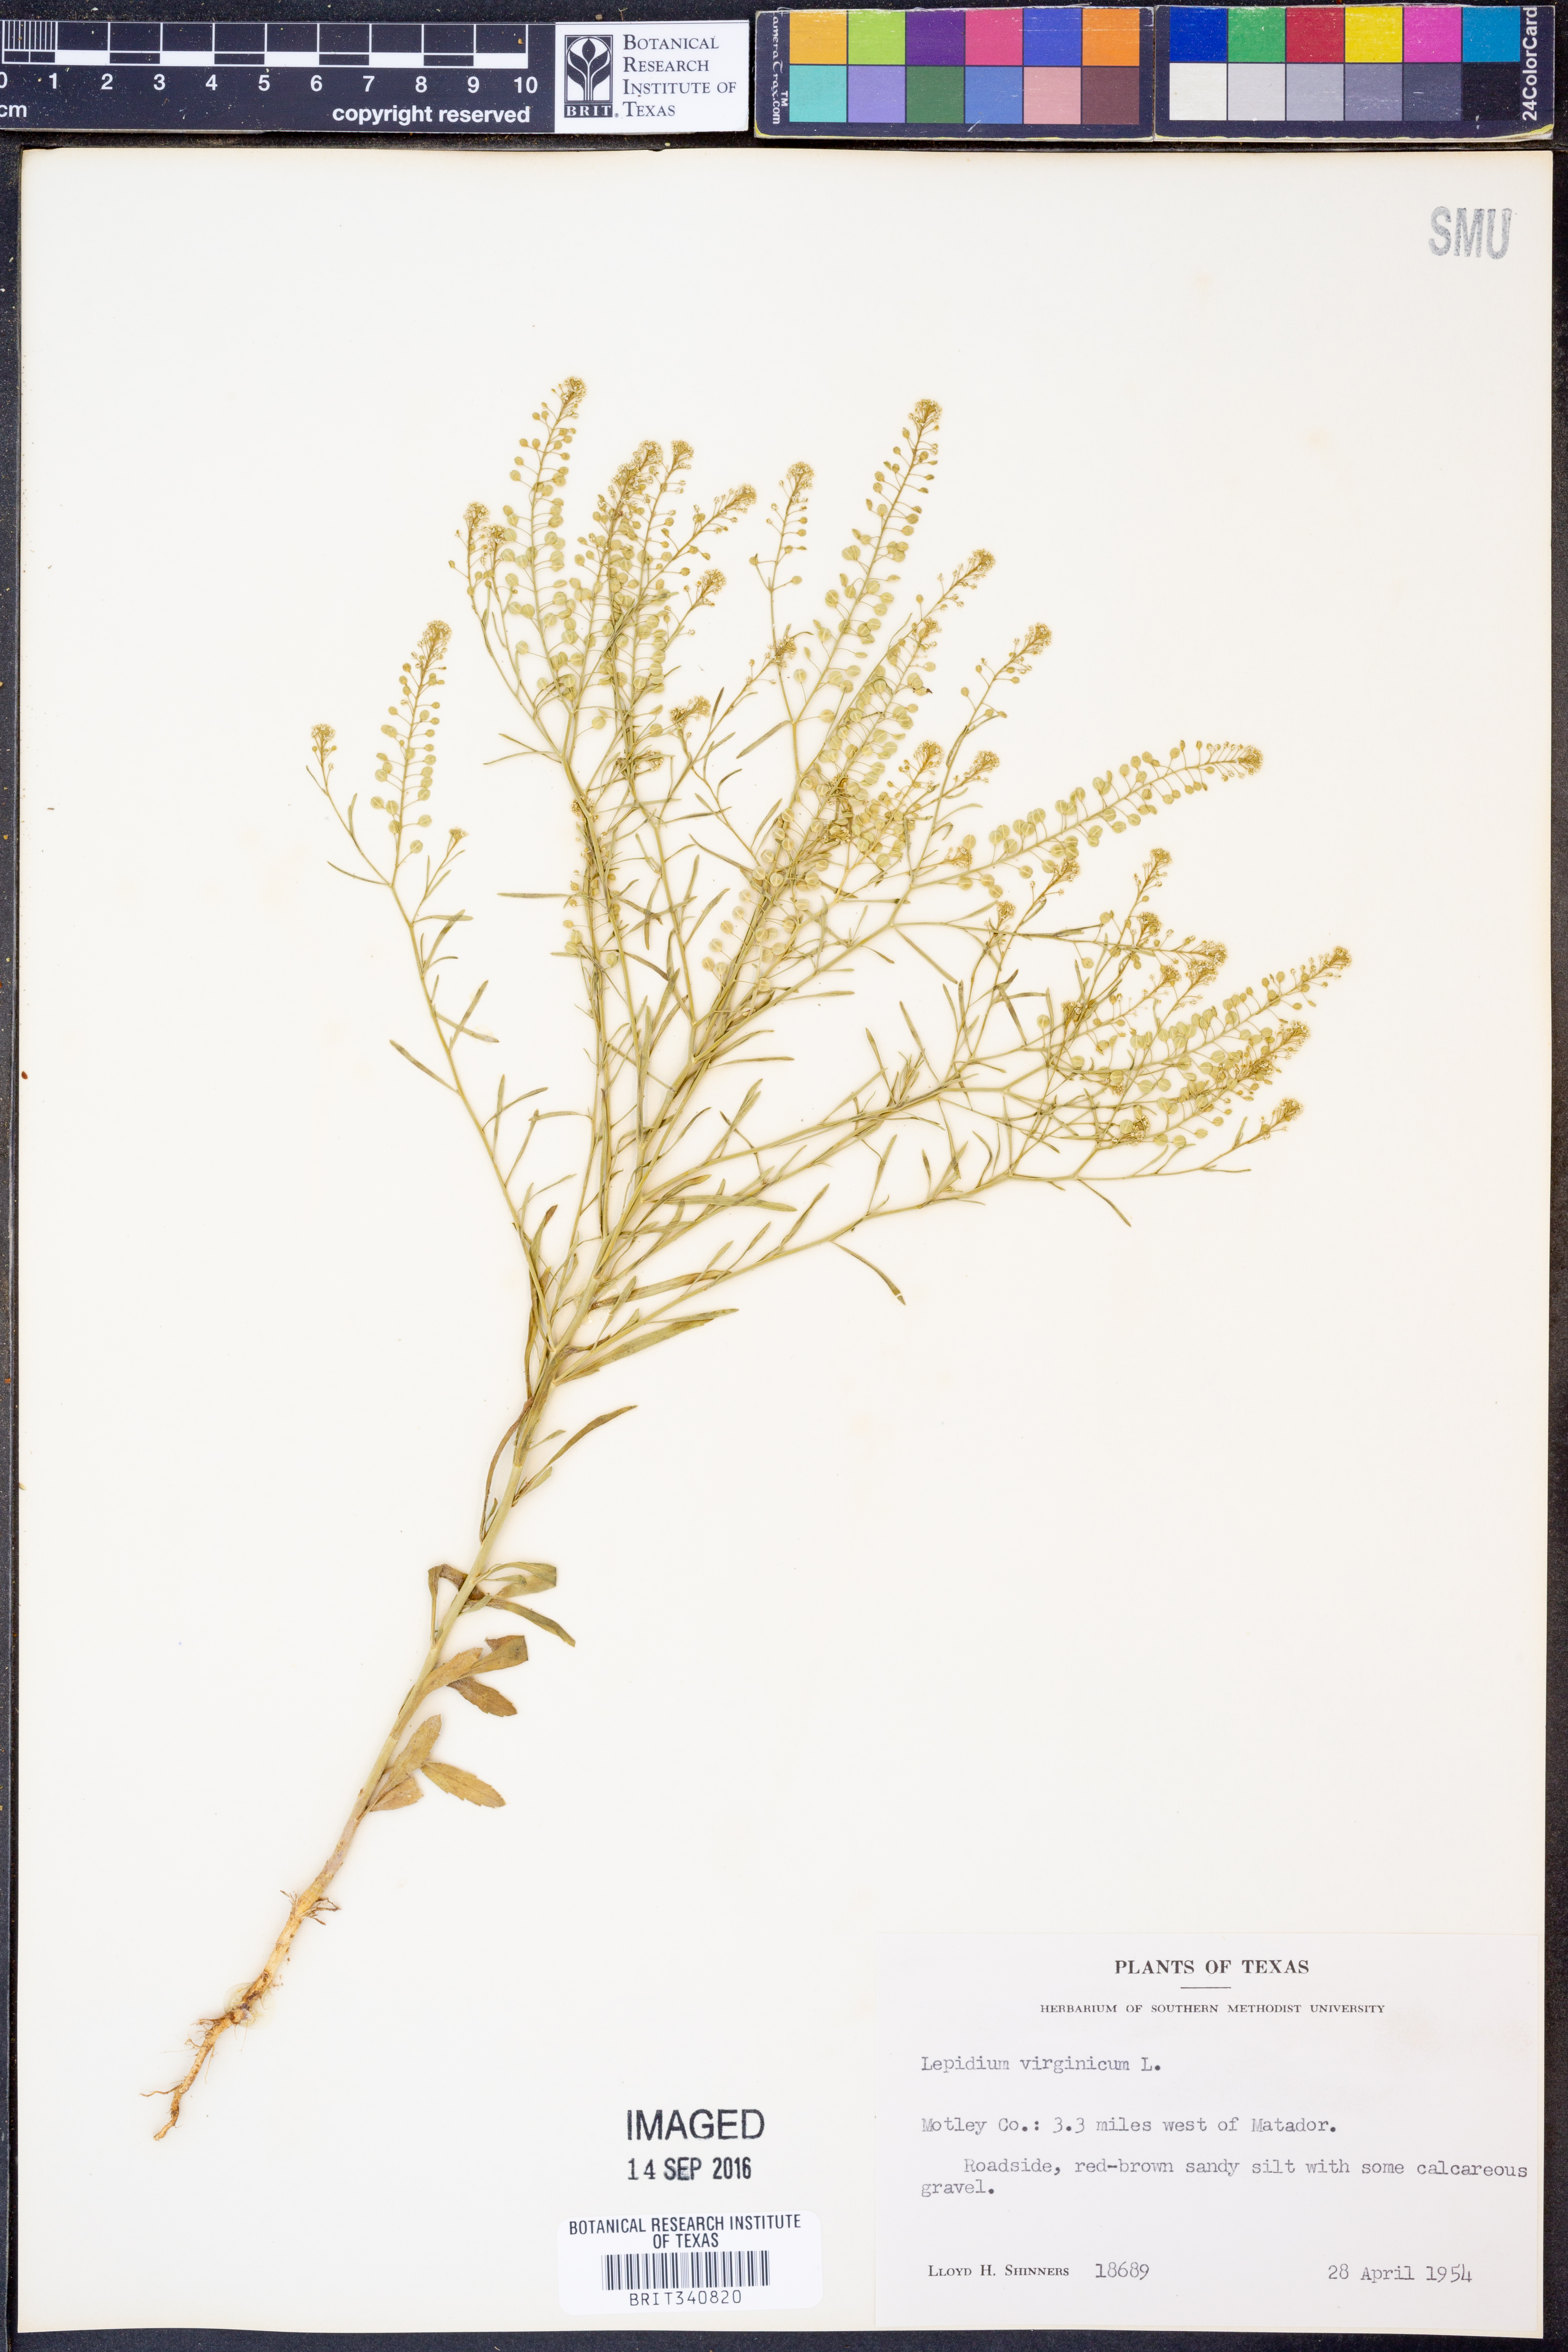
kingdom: Plantae
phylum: Tracheophyta
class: Magnoliopsida
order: Brassicales
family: Brassicaceae
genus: Lepidium
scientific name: Lepidium virginicum
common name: Least pepperwort
